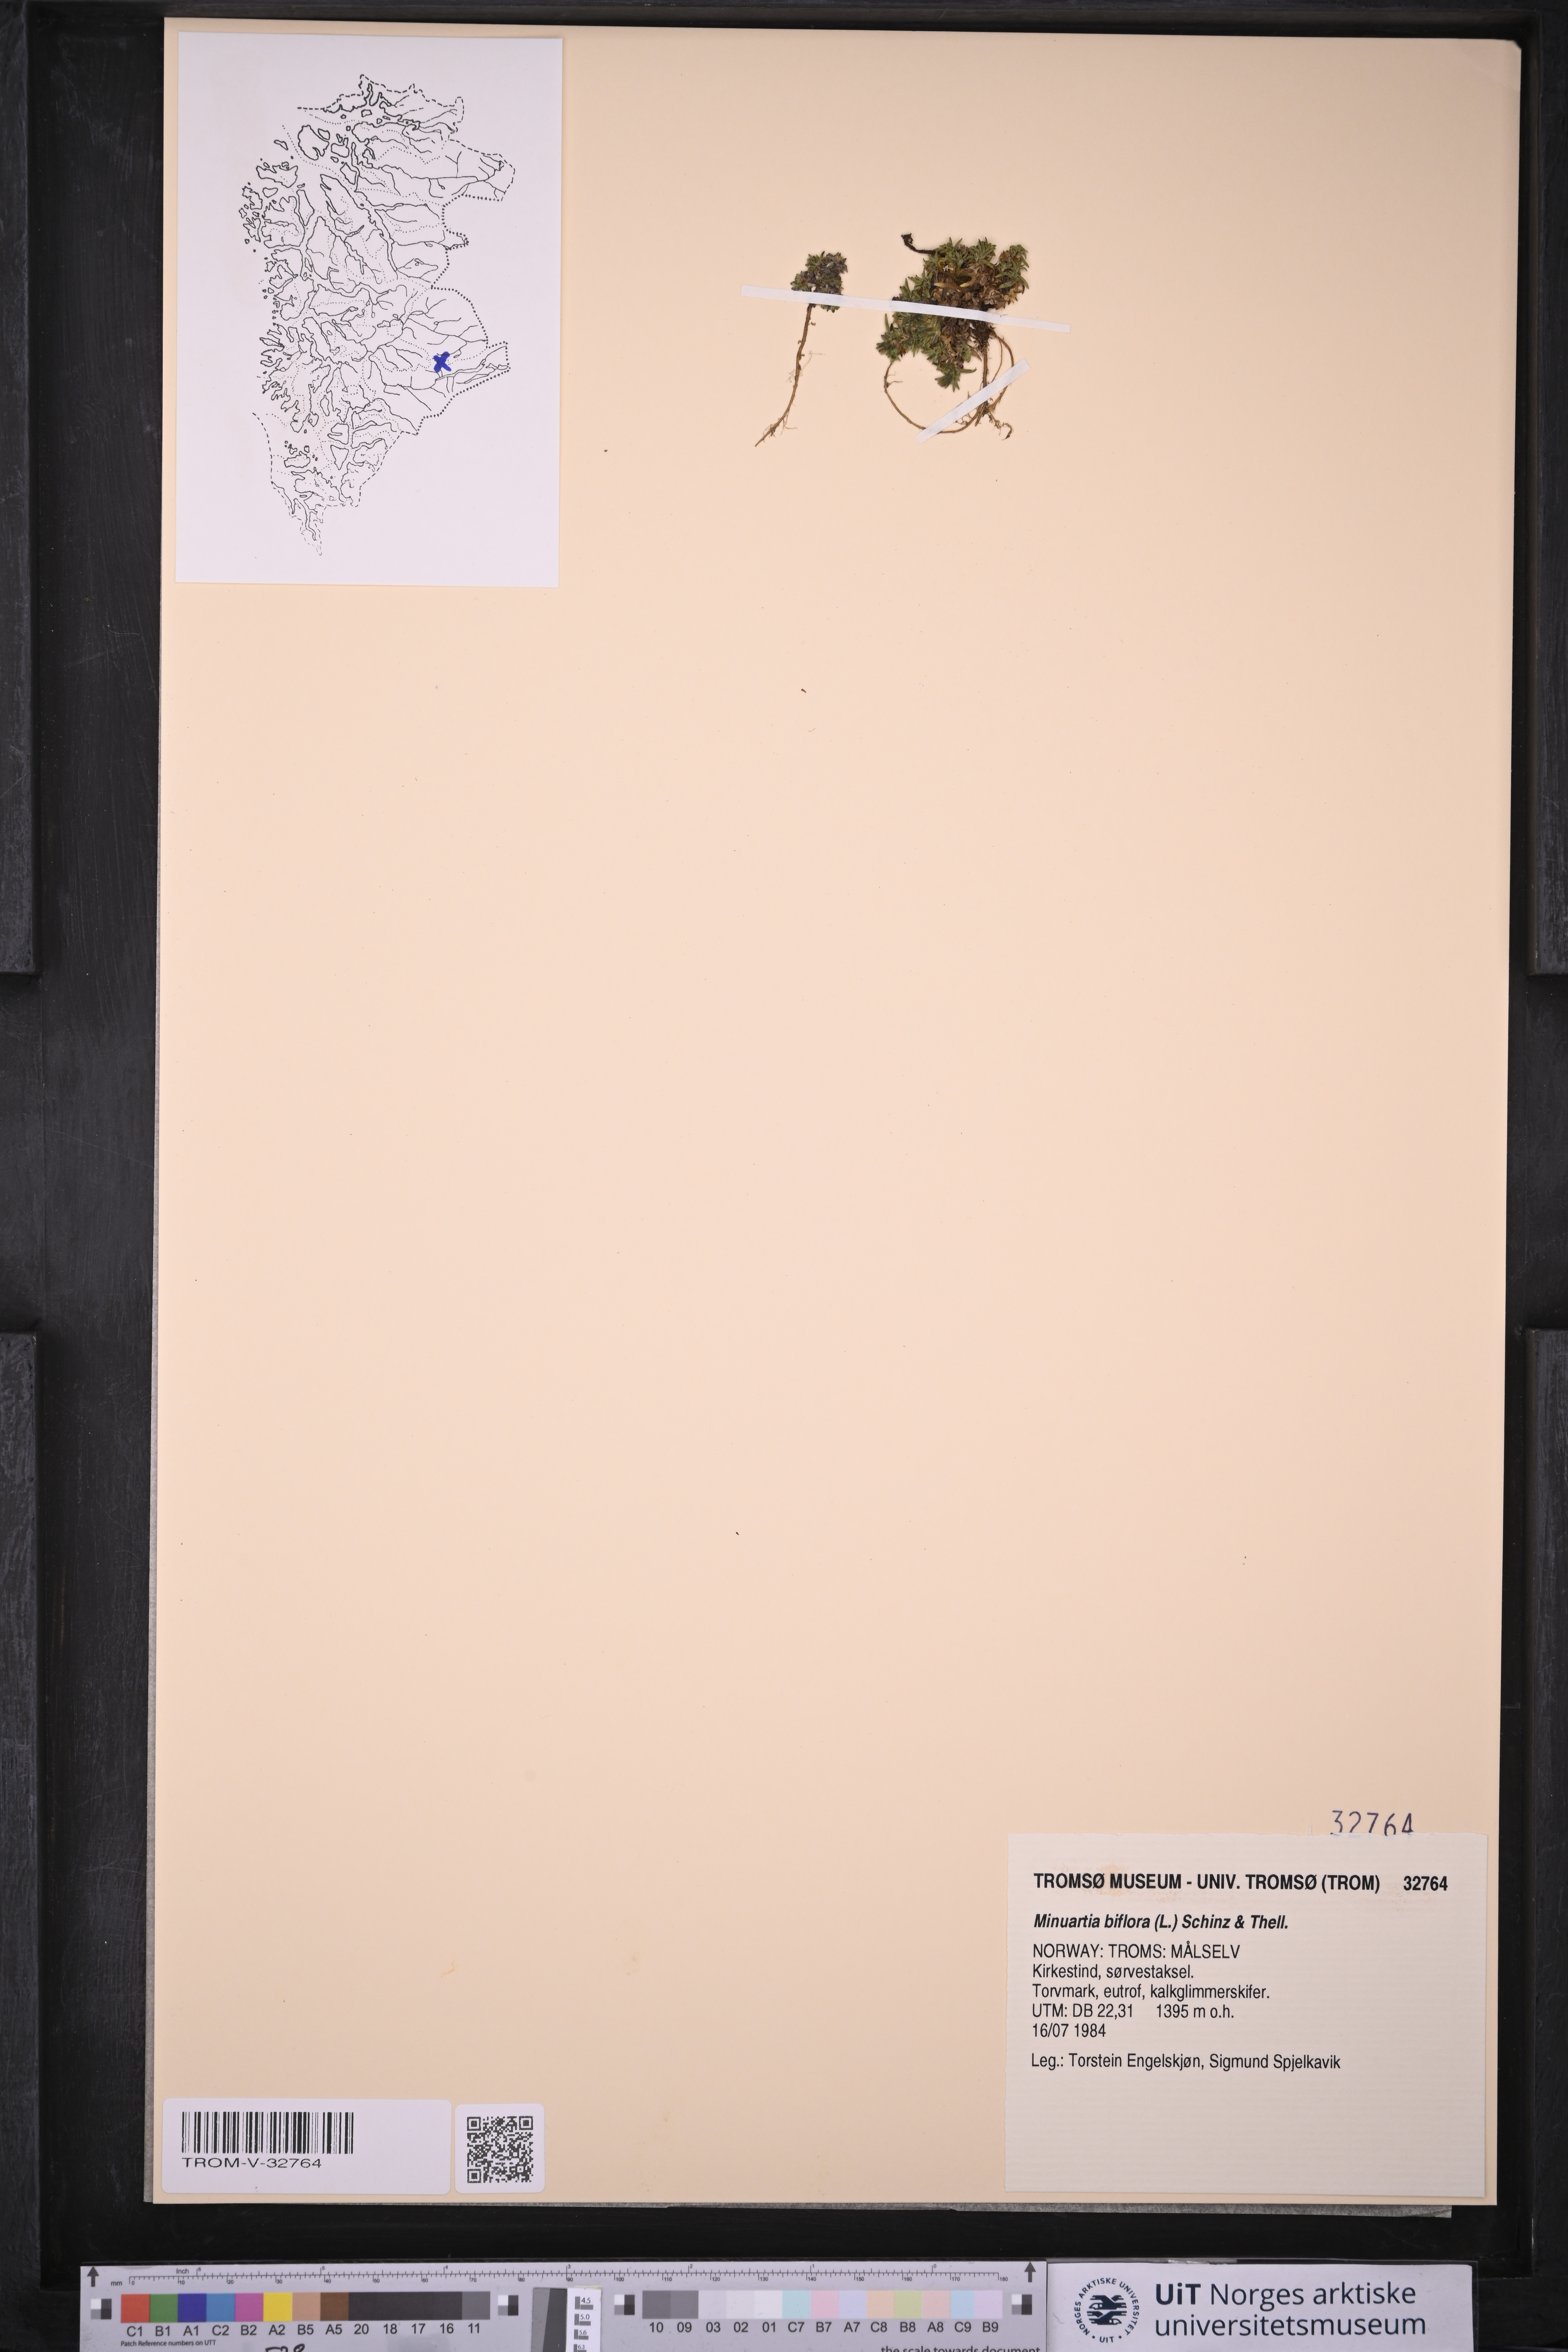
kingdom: Plantae
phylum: Tracheophyta
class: Magnoliopsida
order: Caryophyllales
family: Caryophyllaceae
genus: Cherleria
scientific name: Cherleria biflora
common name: Mountain sandwort
